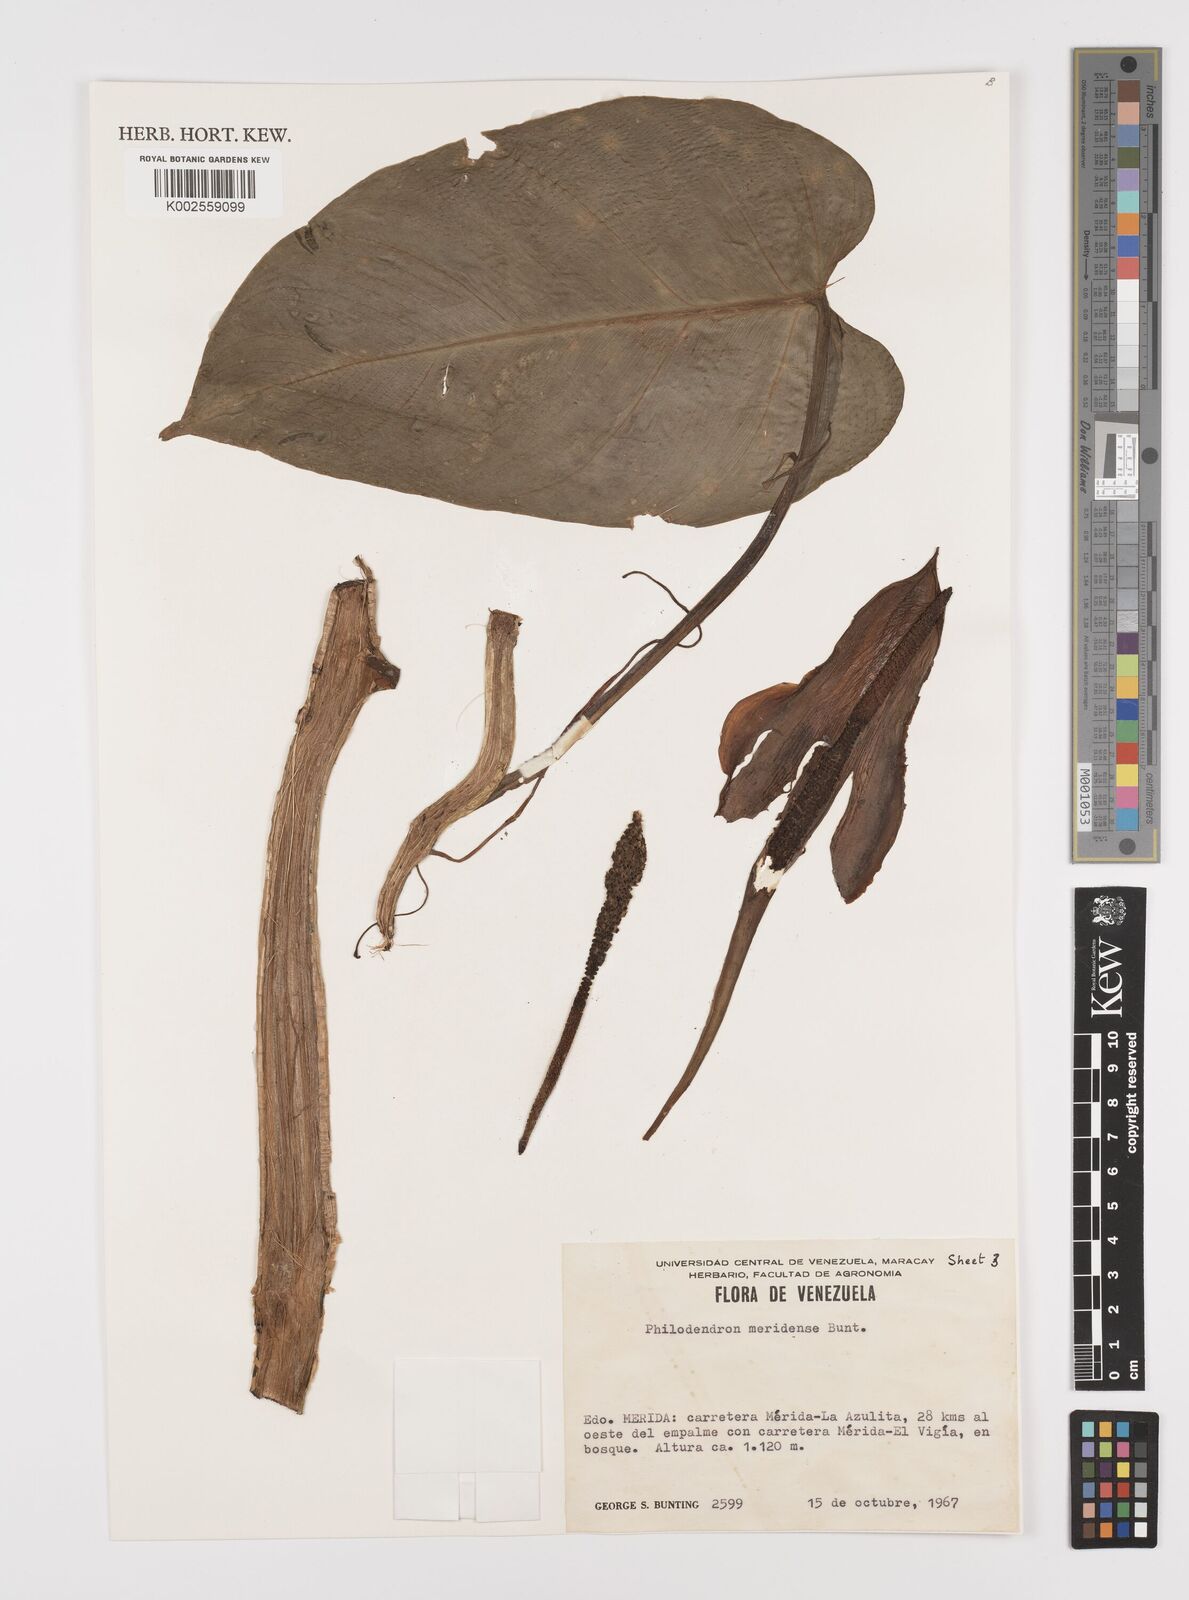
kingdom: Plantae
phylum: Tracheophyta
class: Liliopsida
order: Alismatales
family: Araceae
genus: Philodendron
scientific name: Philodendron meridense
